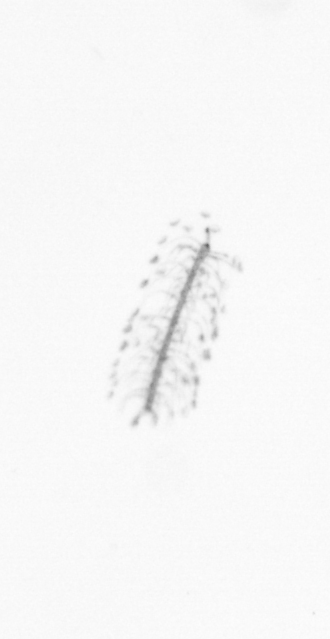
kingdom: Chromista
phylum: Ochrophyta
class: Bacillariophyceae
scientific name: Bacillariophyceae
